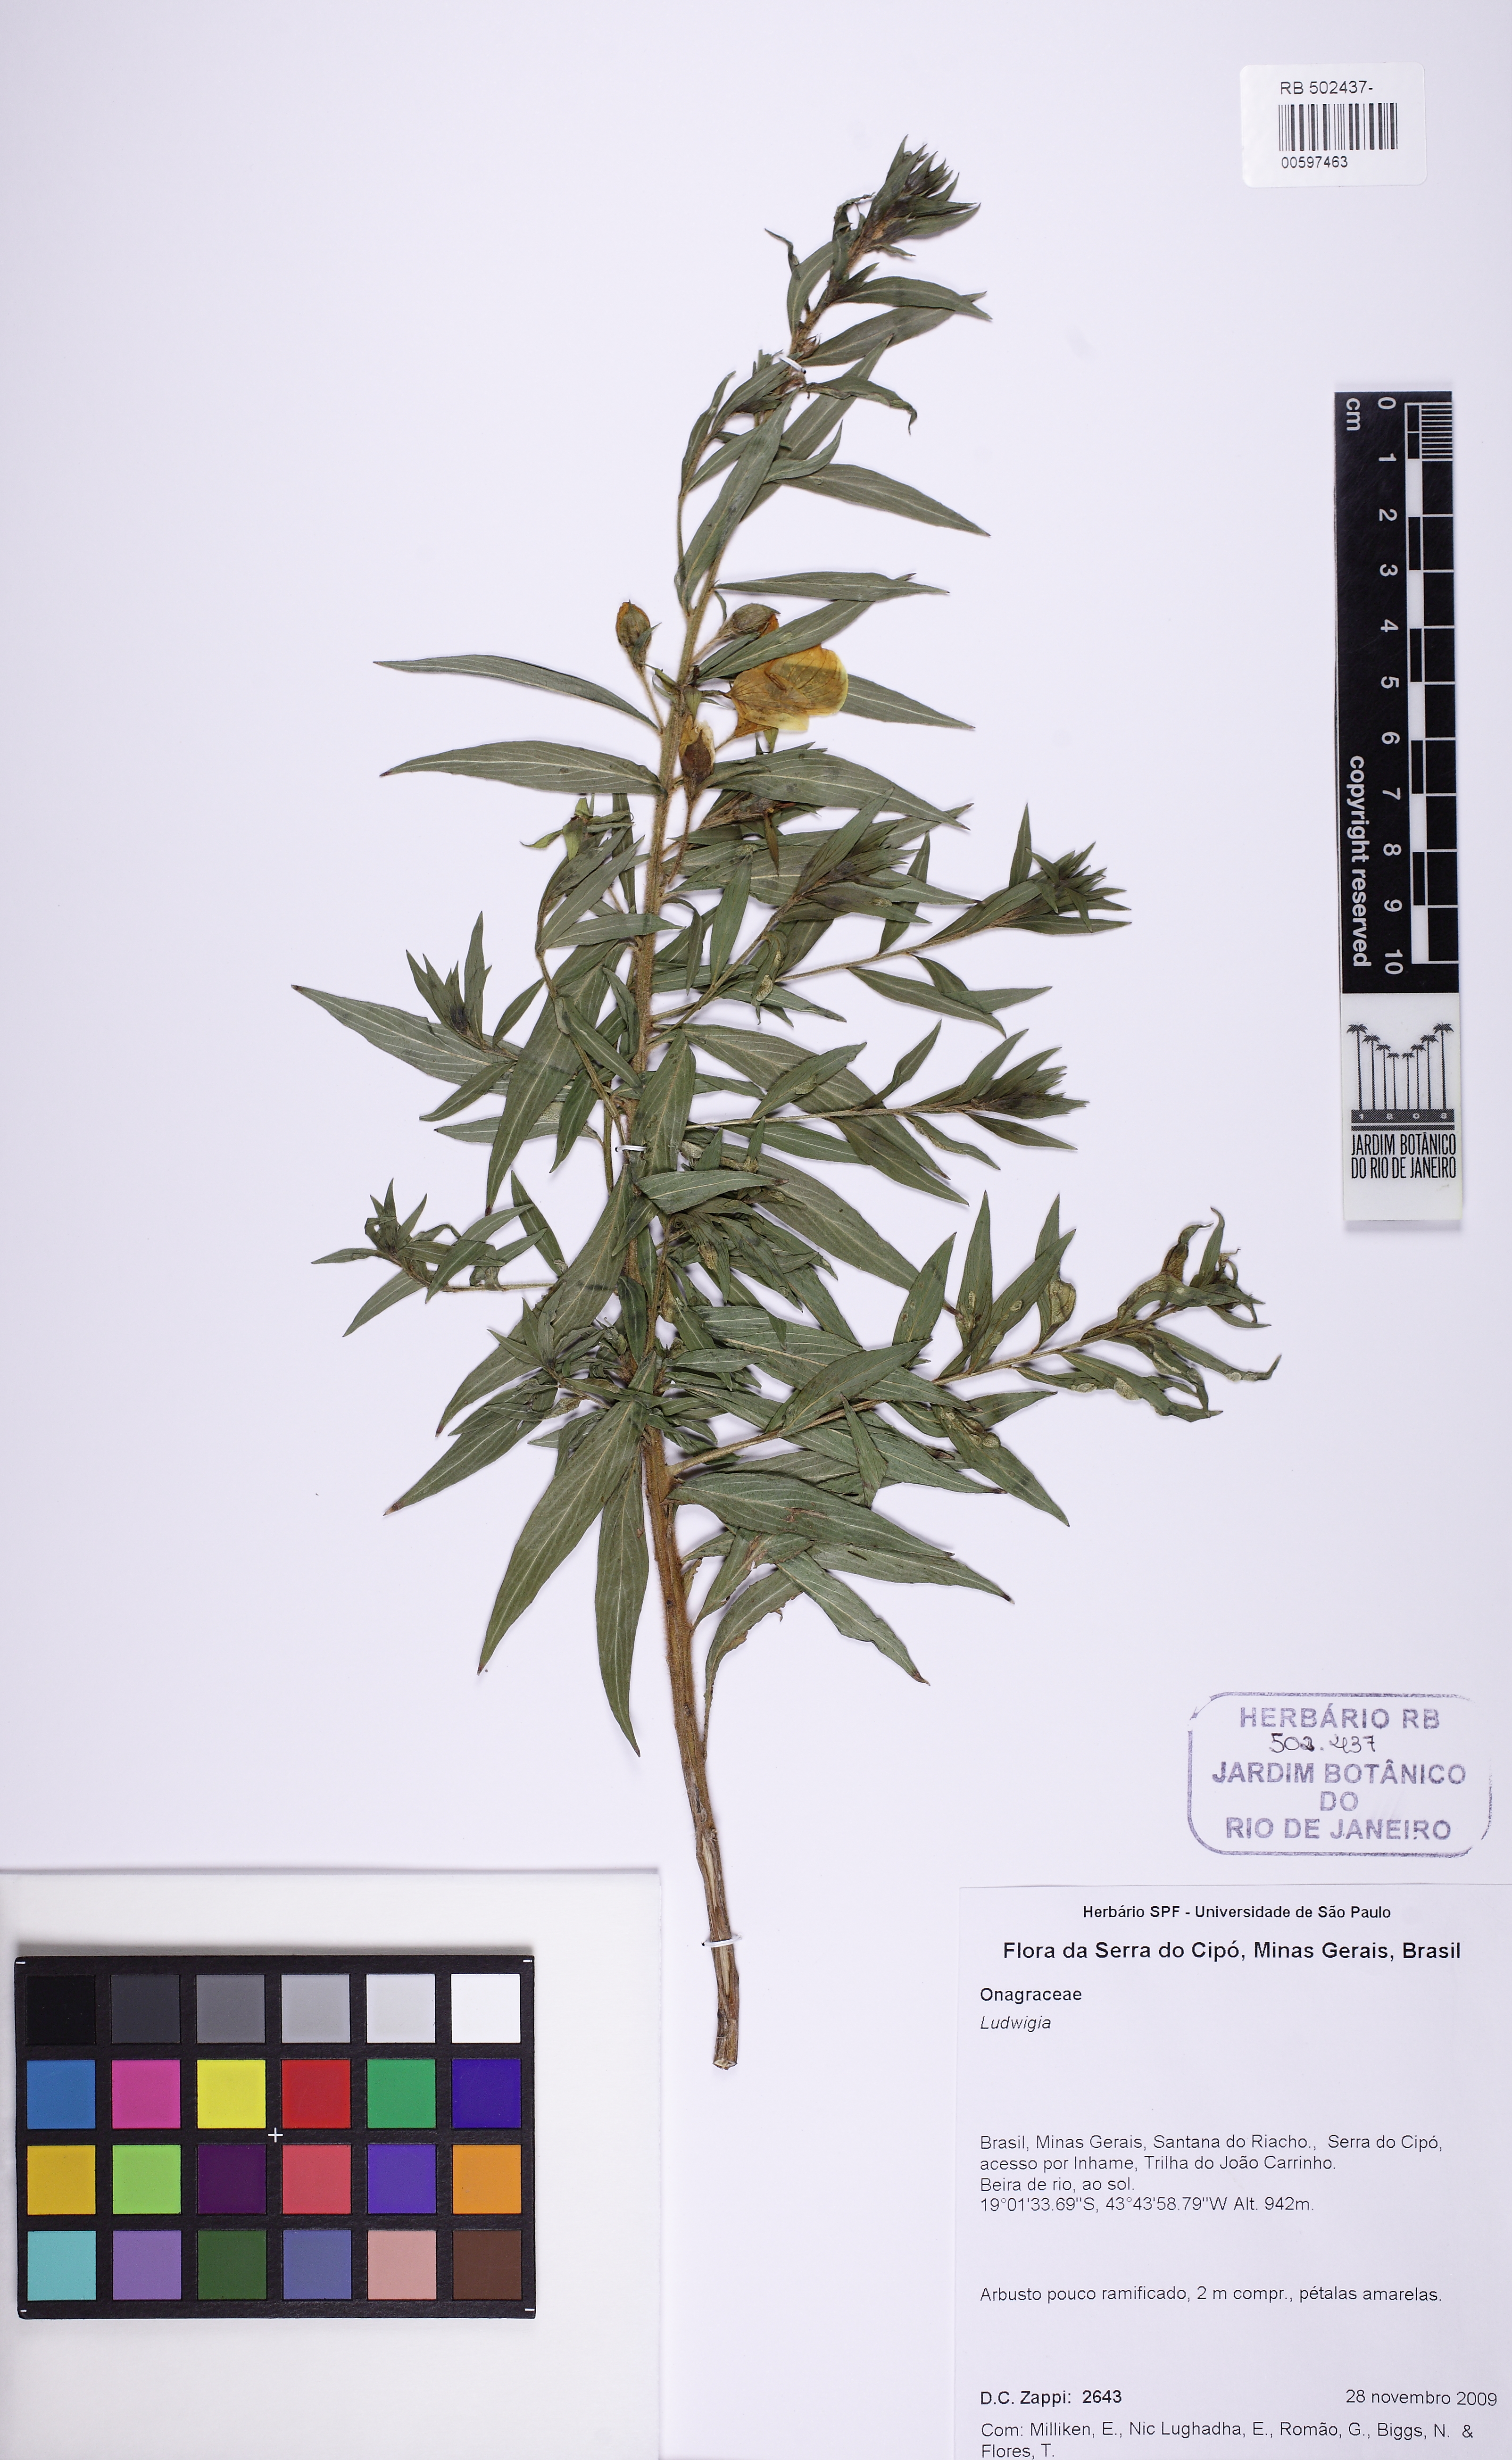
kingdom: Plantae
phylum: Tracheophyta
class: Magnoliopsida
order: Myrtales
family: Onagraceae
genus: Ludwigia
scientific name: Ludwigia
